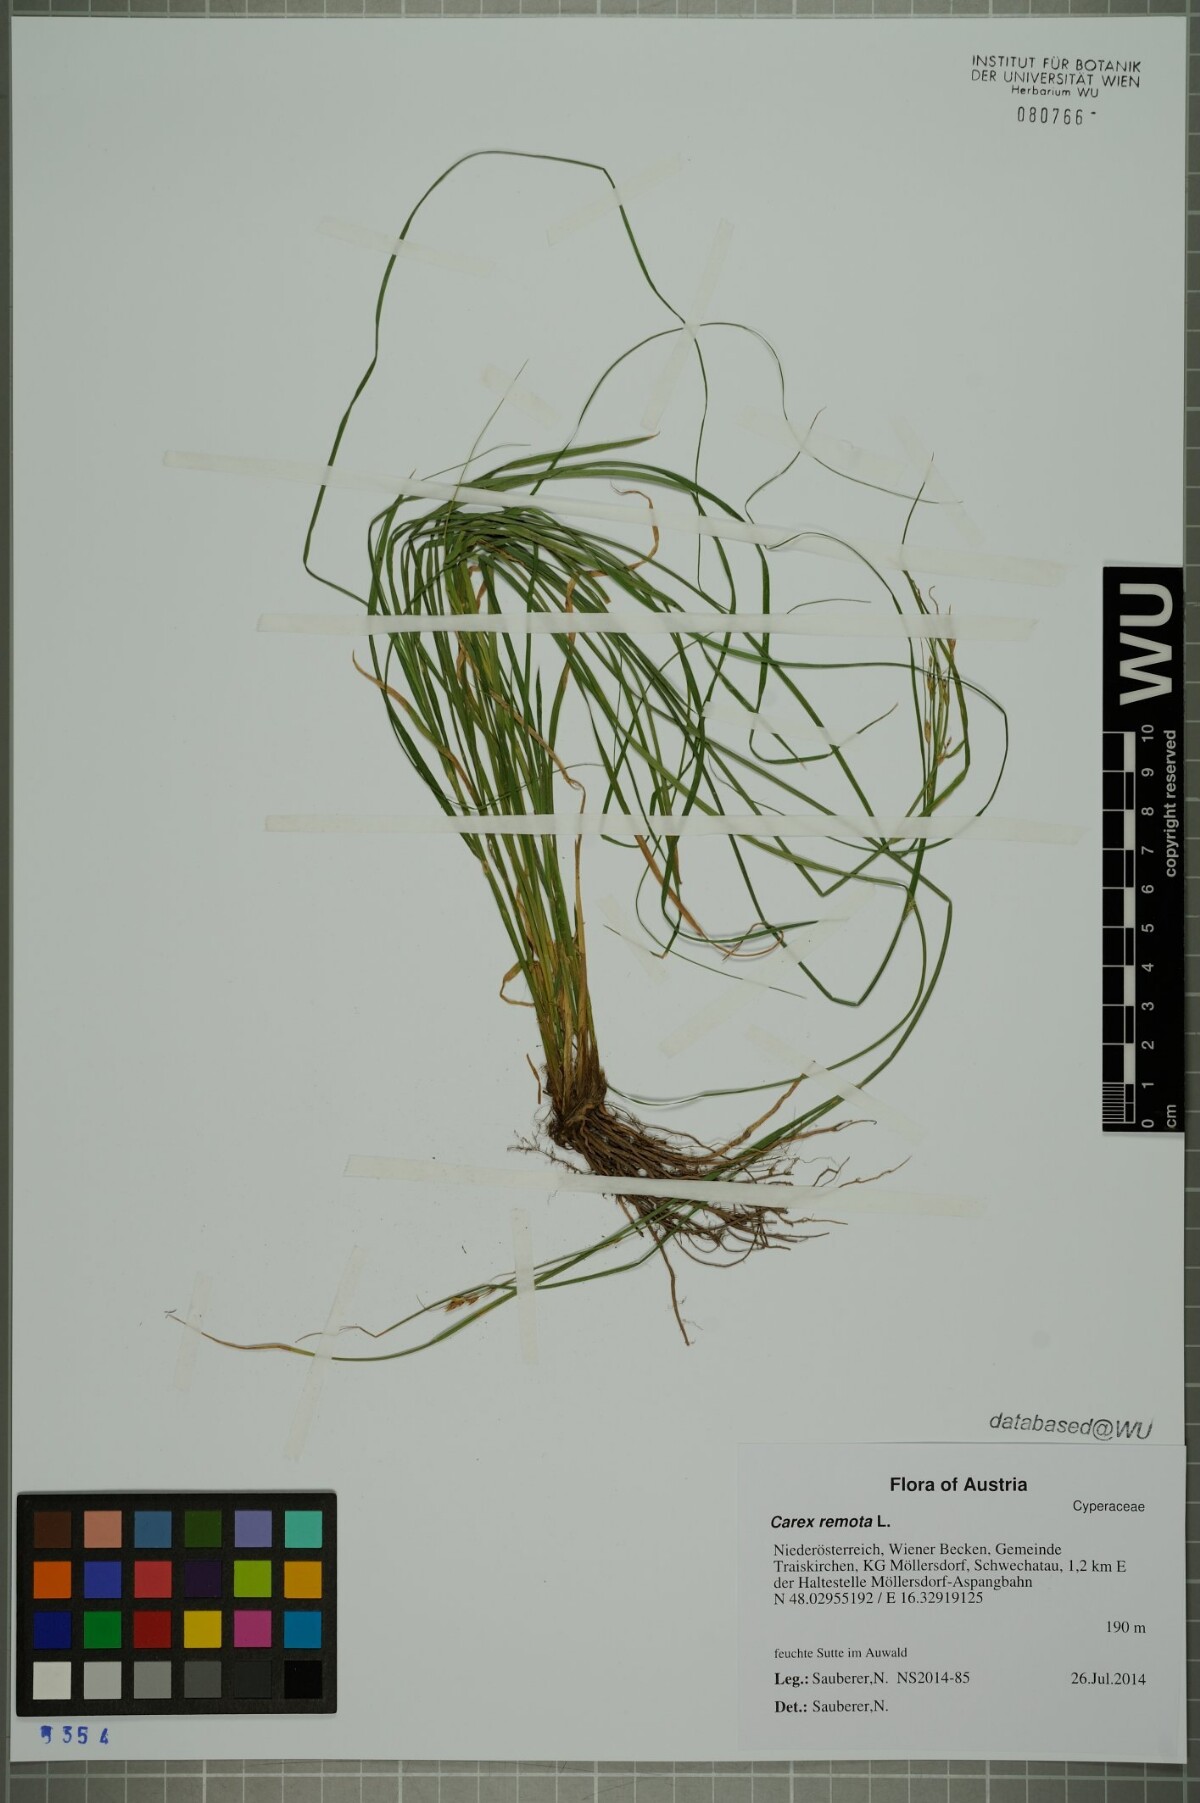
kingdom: Plantae
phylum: Tracheophyta
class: Liliopsida
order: Poales
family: Cyperaceae
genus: Carex
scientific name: Carex remota
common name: Remote sedge
